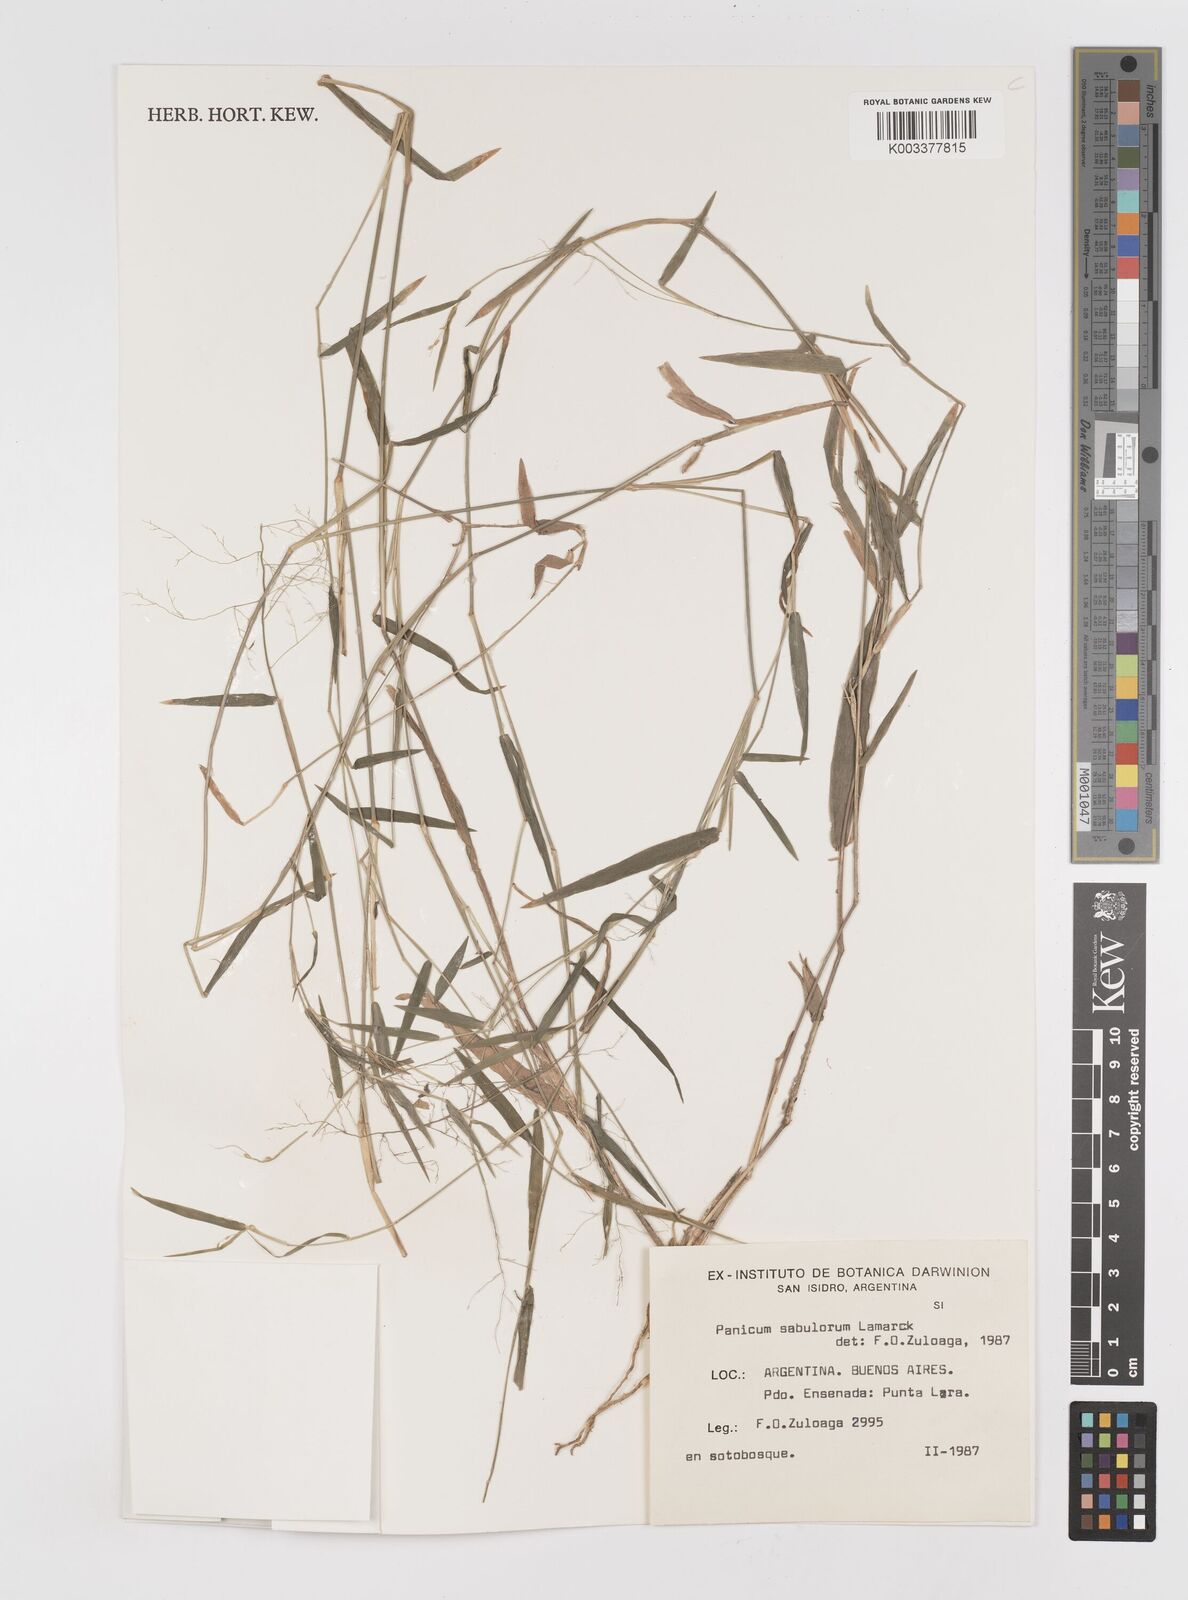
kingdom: Plantae
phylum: Tracheophyta
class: Liliopsida
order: Poales
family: Poaceae
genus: Dichanthelium
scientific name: Dichanthelium sabulorum
